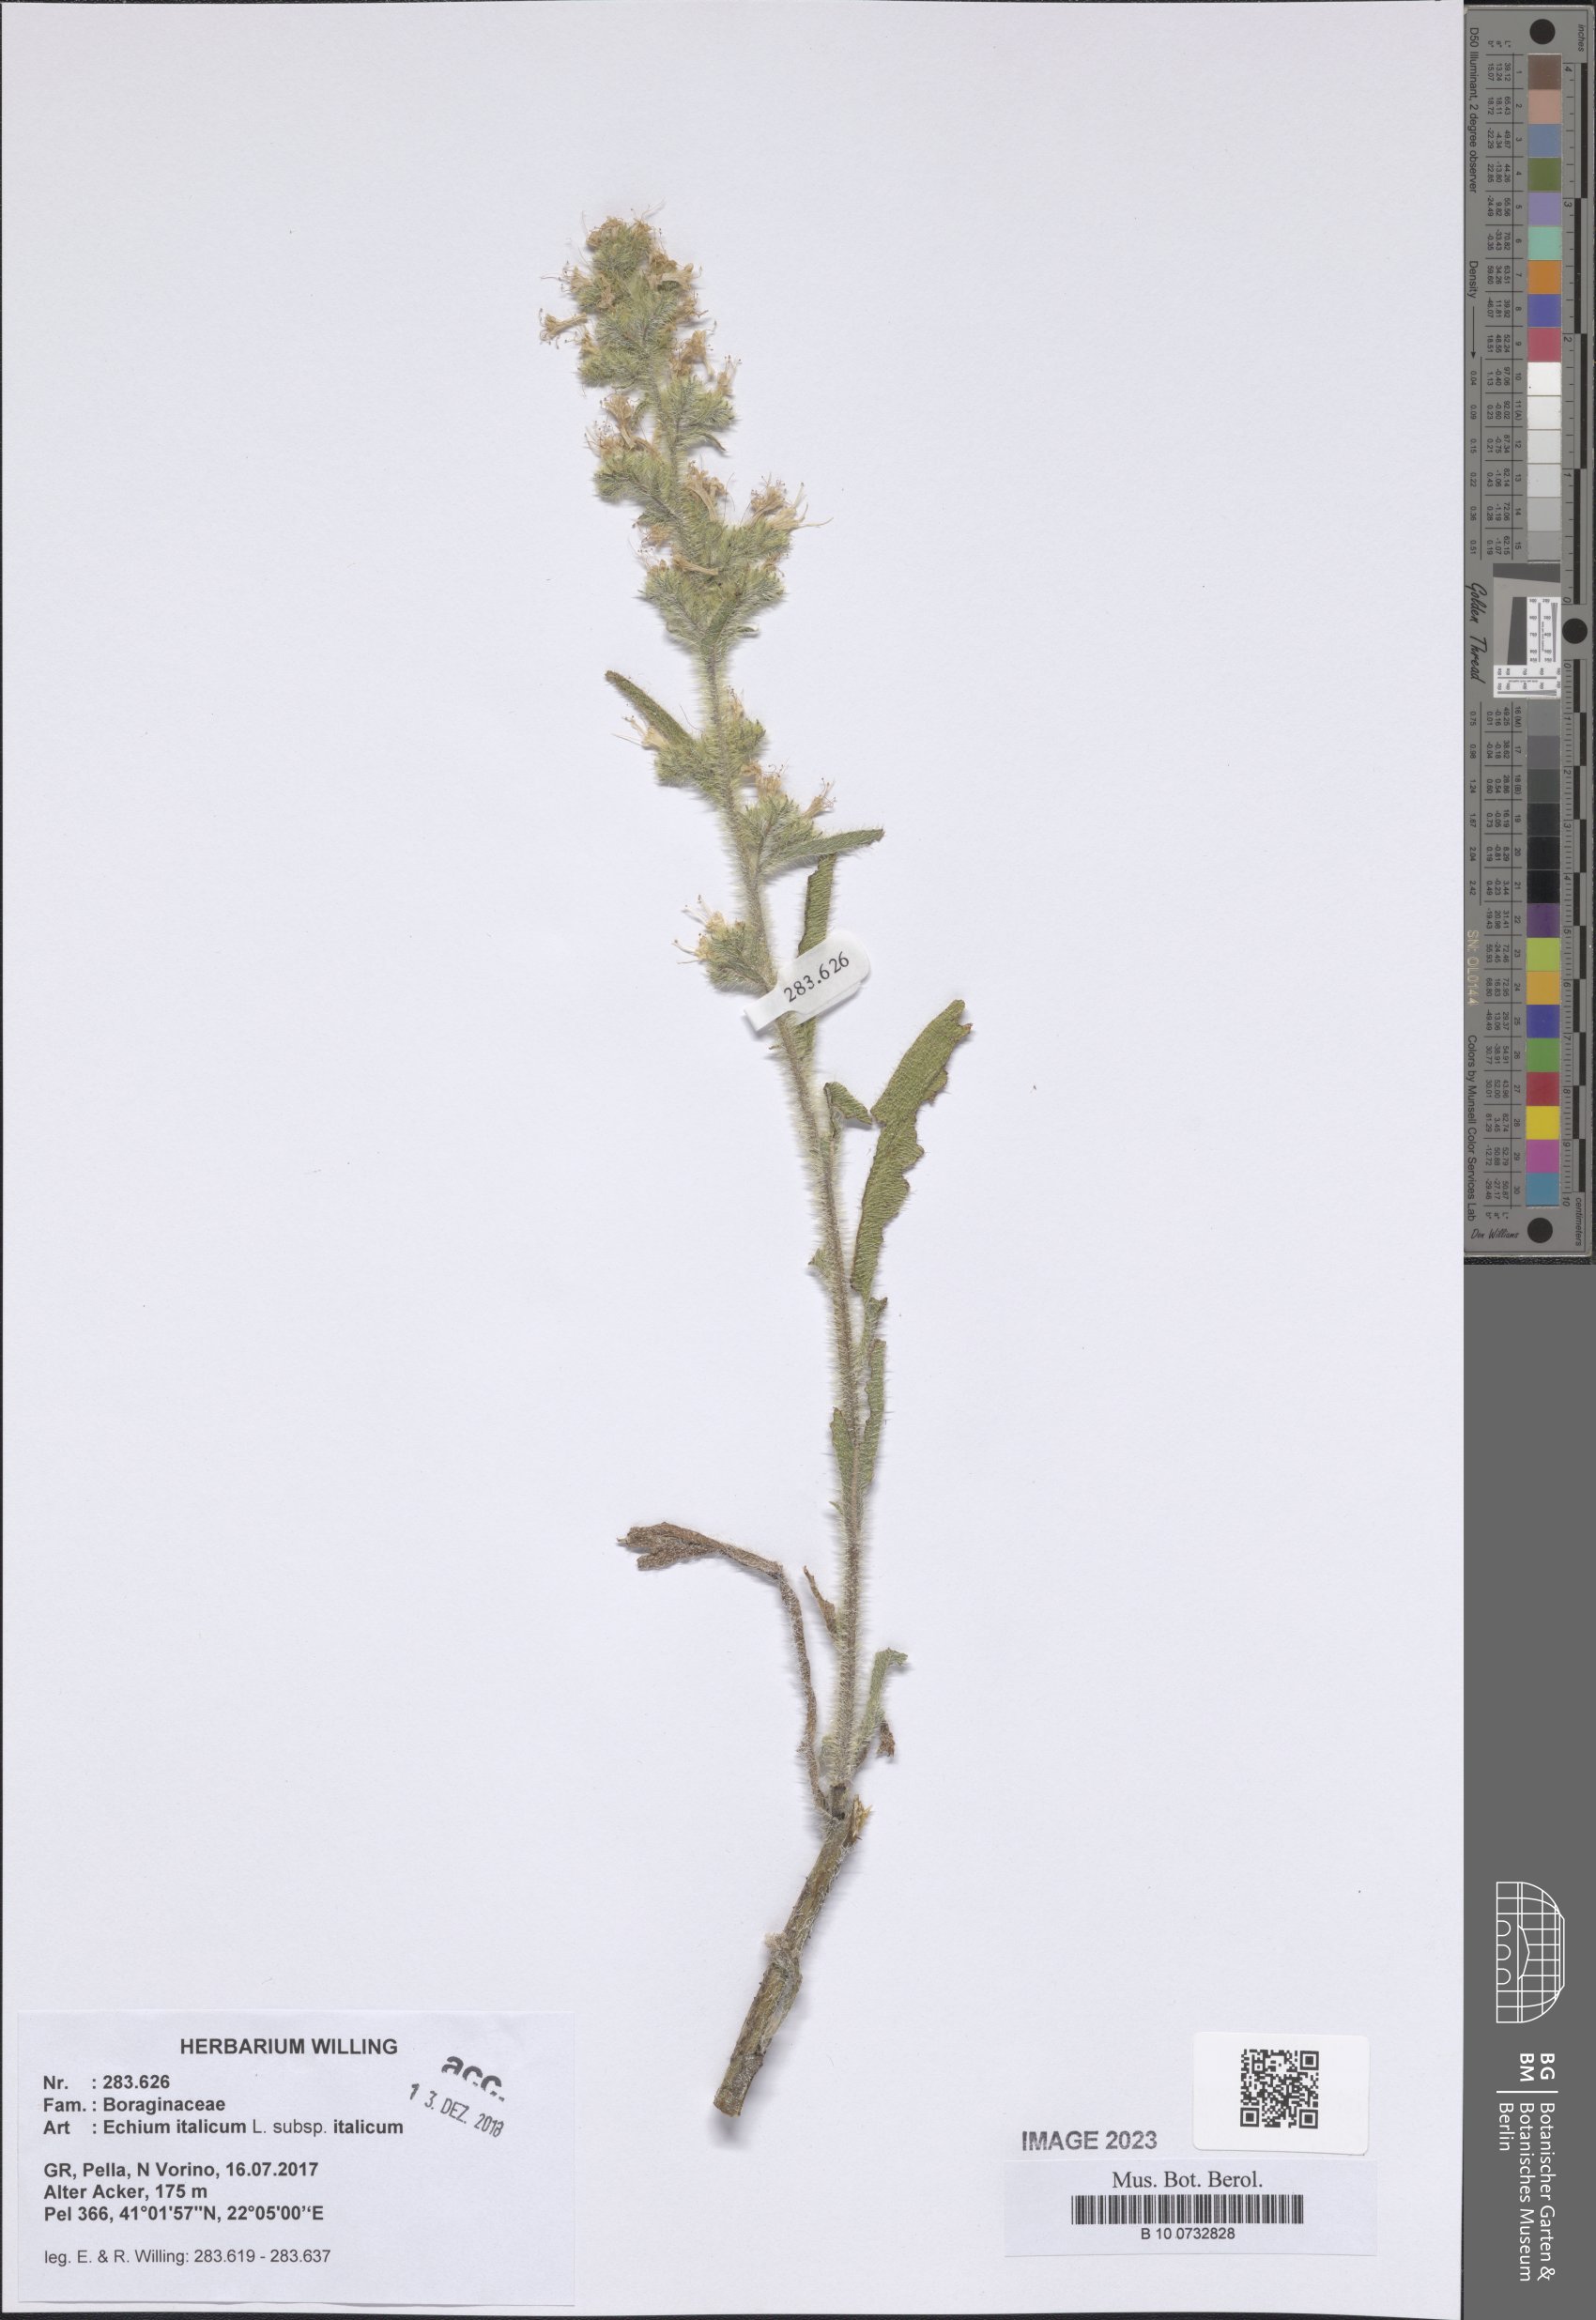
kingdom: Plantae
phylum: Tracheophyta
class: Magnoliopsida
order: Boraginales
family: Boraginaceae
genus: Echium
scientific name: Echium italicum
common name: Italian viper's bugloss
